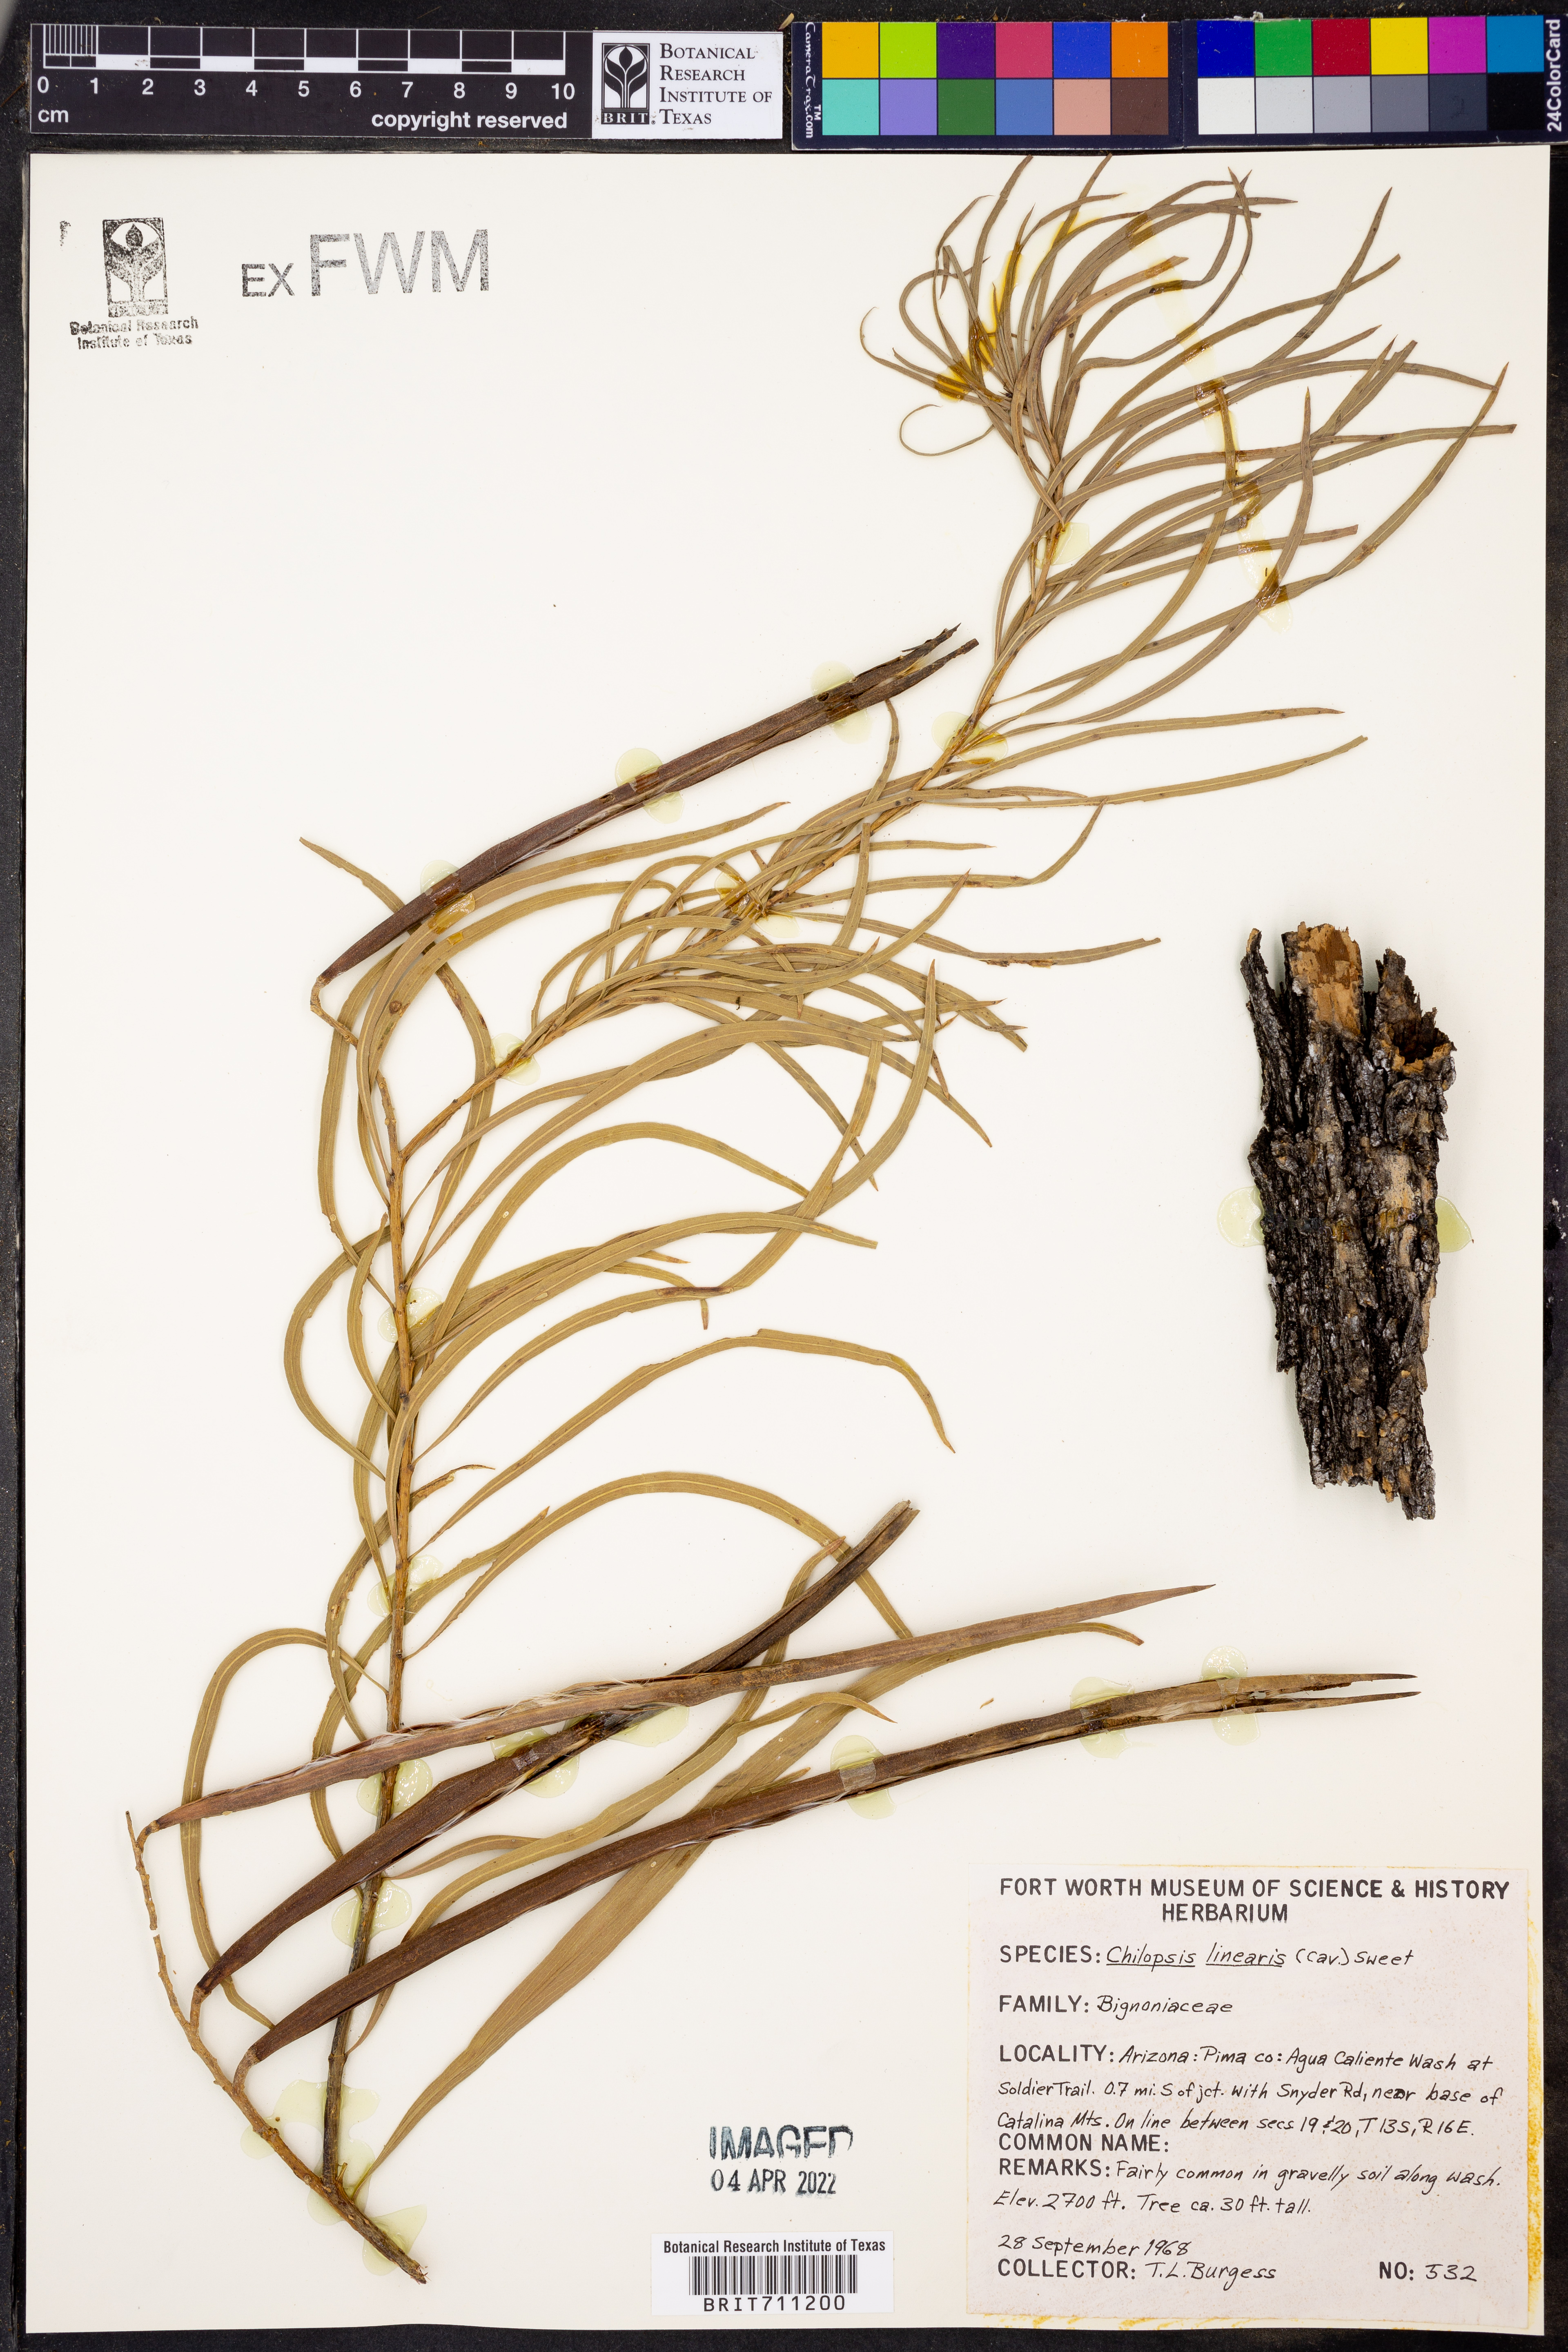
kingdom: Plantae
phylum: Tracheophyta
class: Magnoliopsida
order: Lamiales
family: Bignoniaceae
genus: Chilopsis
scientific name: Chilopsis linearis
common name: Desert-willow
